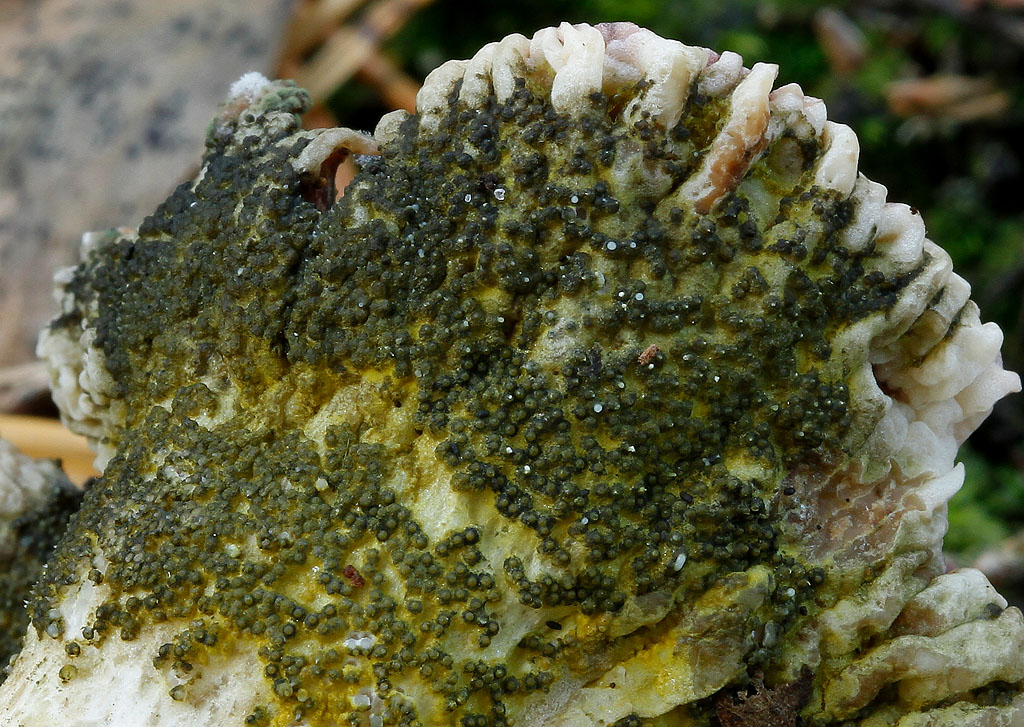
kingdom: Fungi
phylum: Ascomycota
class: Sordariomycetes
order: Hypocreales
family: Hypocreaceae
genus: Hypomyces
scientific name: Hypomyces luteovirens
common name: gulgrøn snylteskorpe
